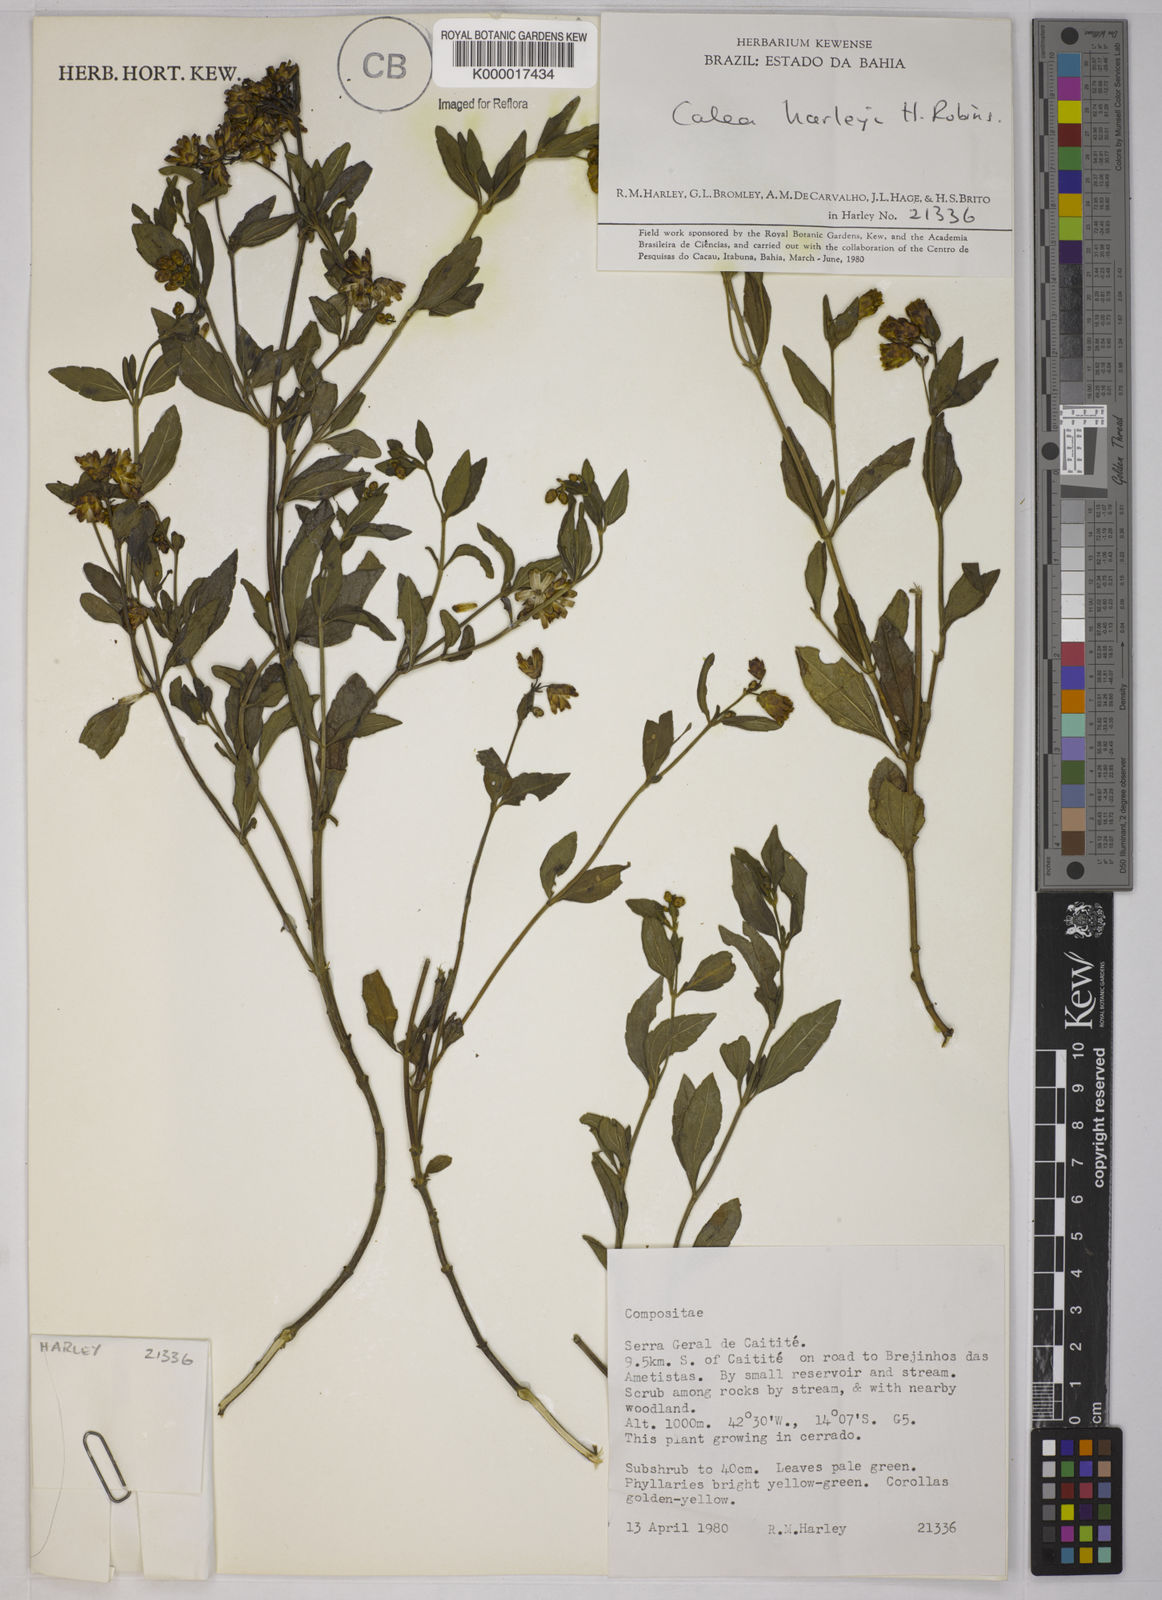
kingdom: Plantae
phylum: Tracheophyta
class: Magnoliopsida
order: Asterales
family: Asteraceae
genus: Calea
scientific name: Calea harleyi
